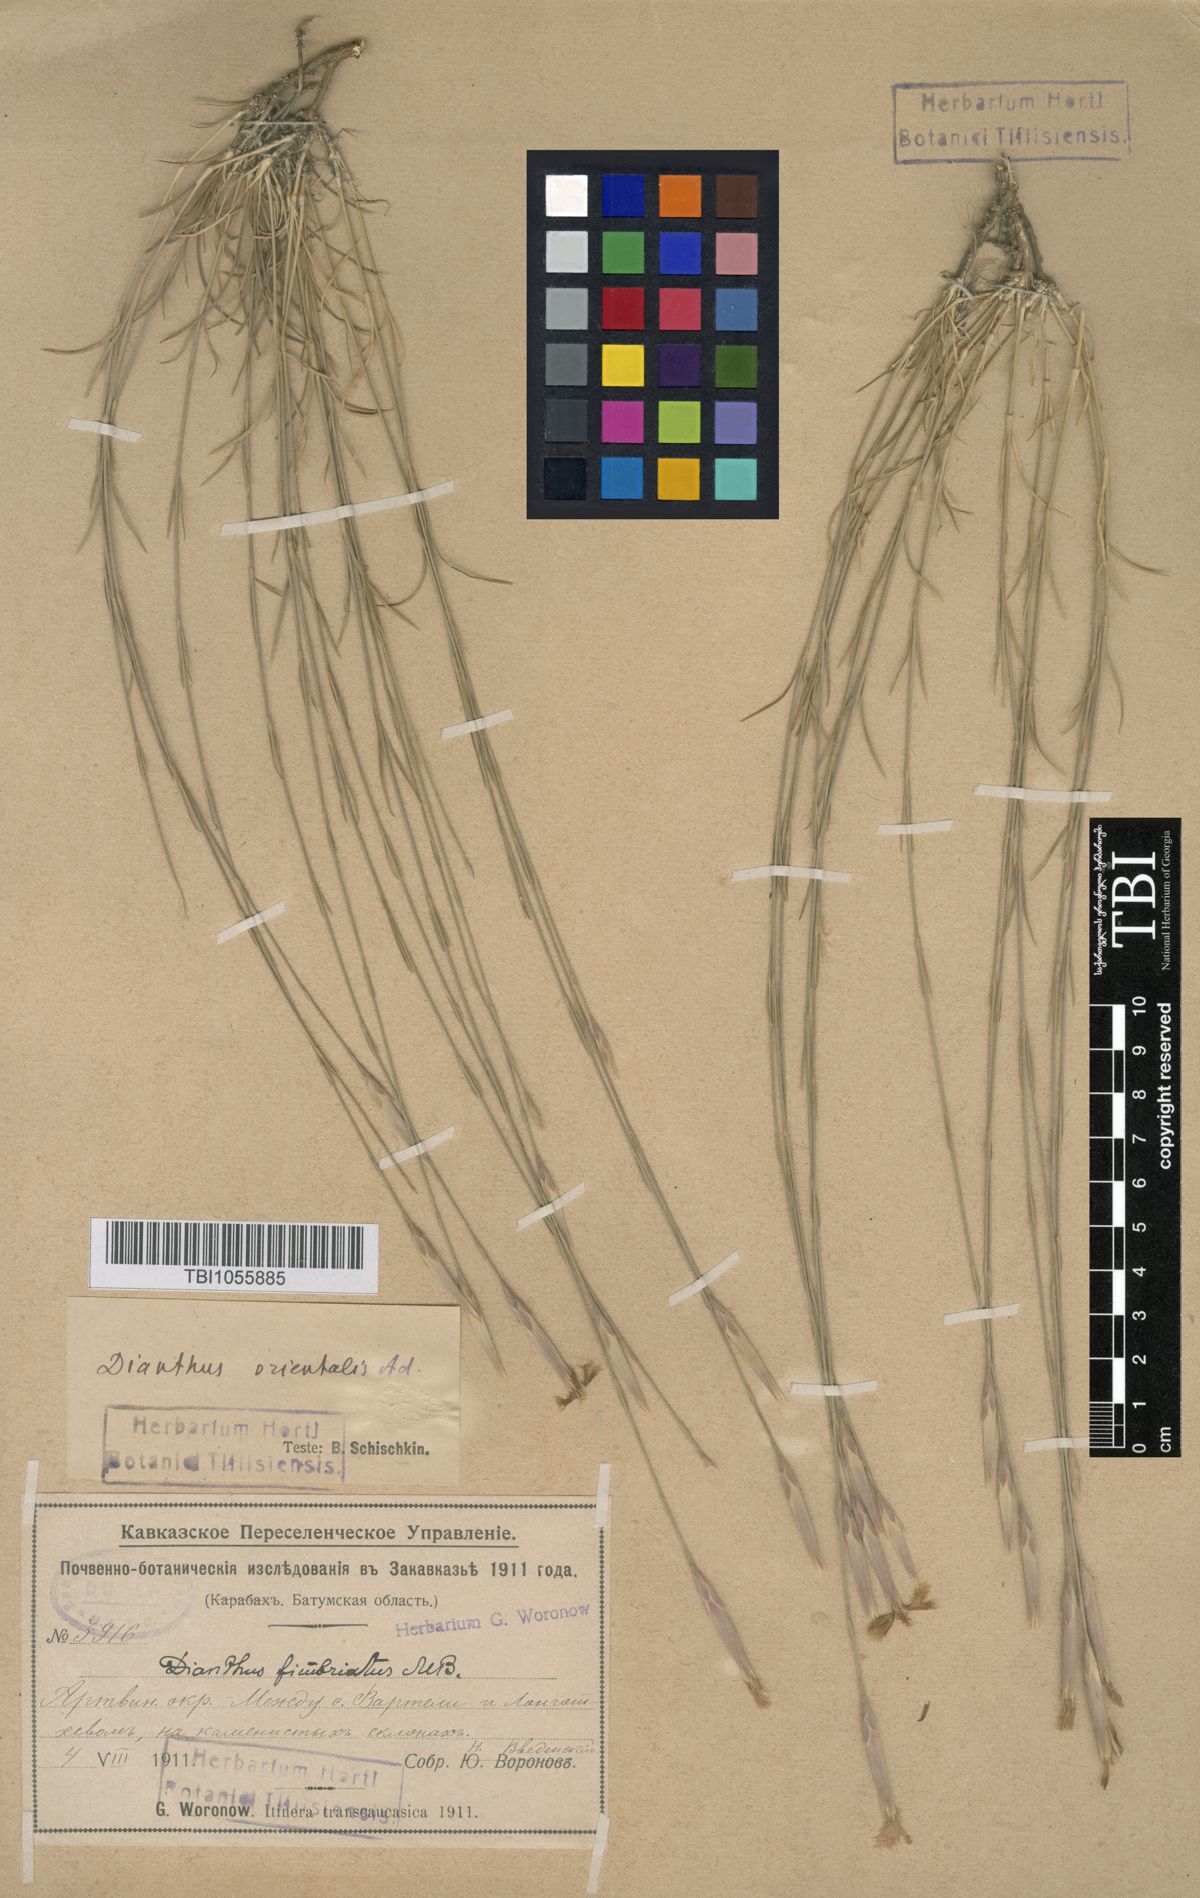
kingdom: Plantae
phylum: Tracheophyta
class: Magnoliopsida
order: Caryophyllales
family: Caryophyllaceae
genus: Dianthus
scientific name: Dianthus orientalis
